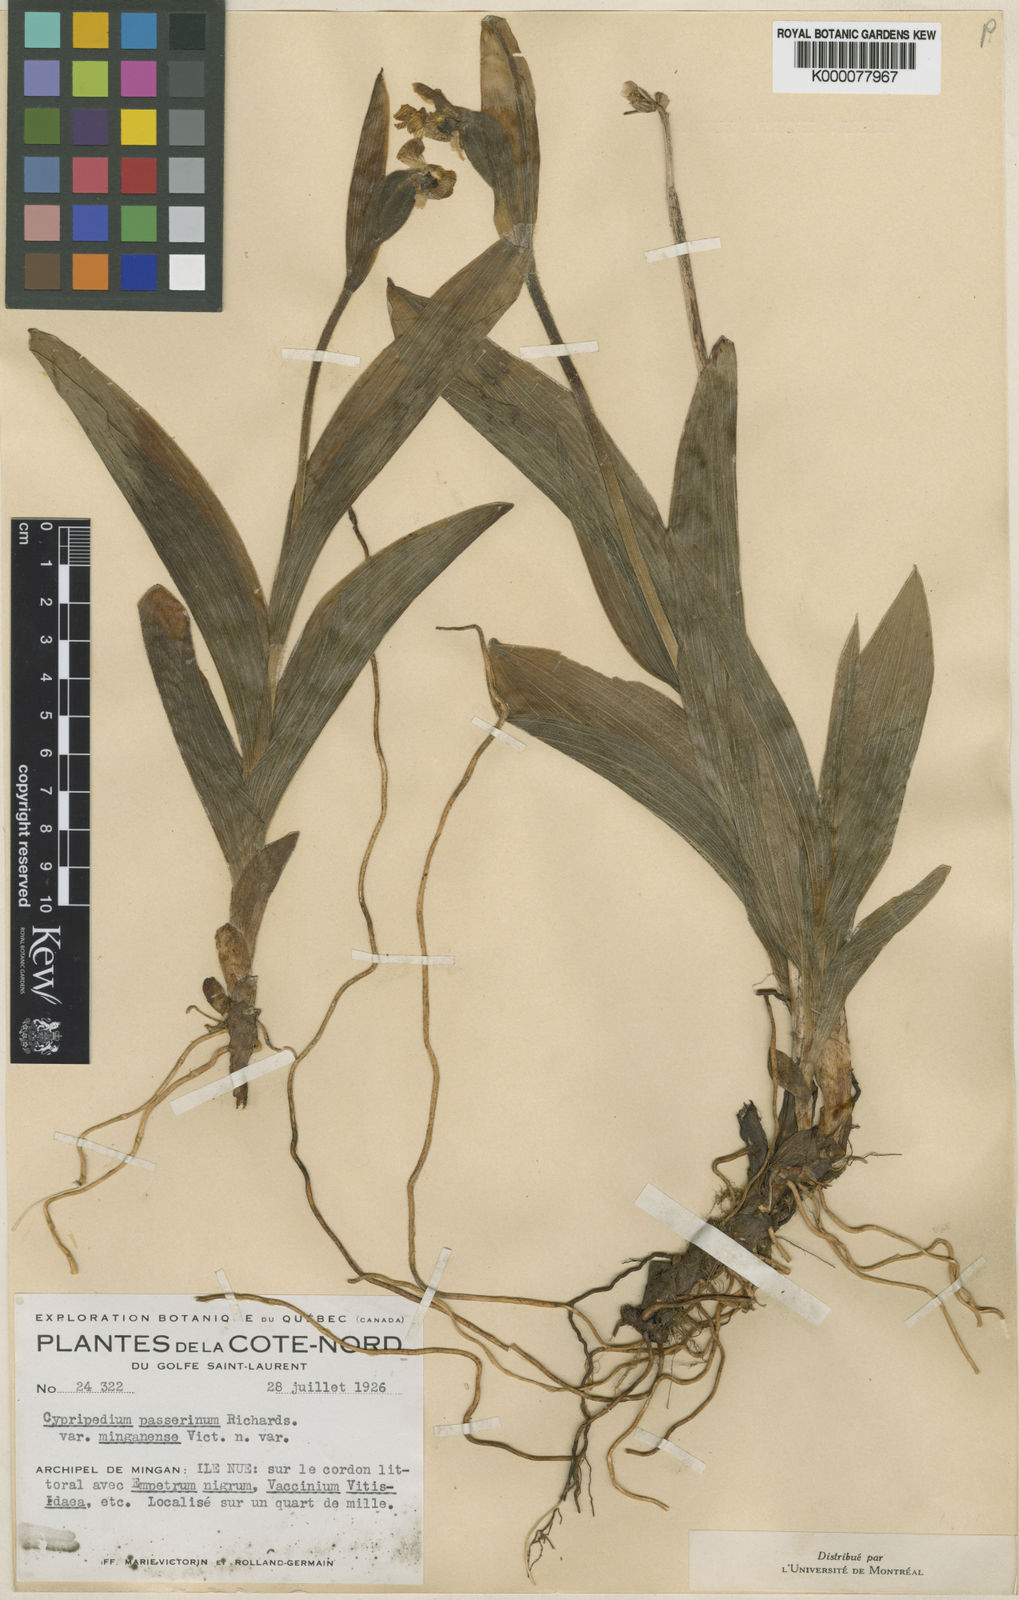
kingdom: Plantae
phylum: Tracheophyta
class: Liliopsida
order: Asparagales
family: Orchidaceae
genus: Cypripedium
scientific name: Cypripedium passerinum
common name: Sparrow's-egg lady's-slipper
